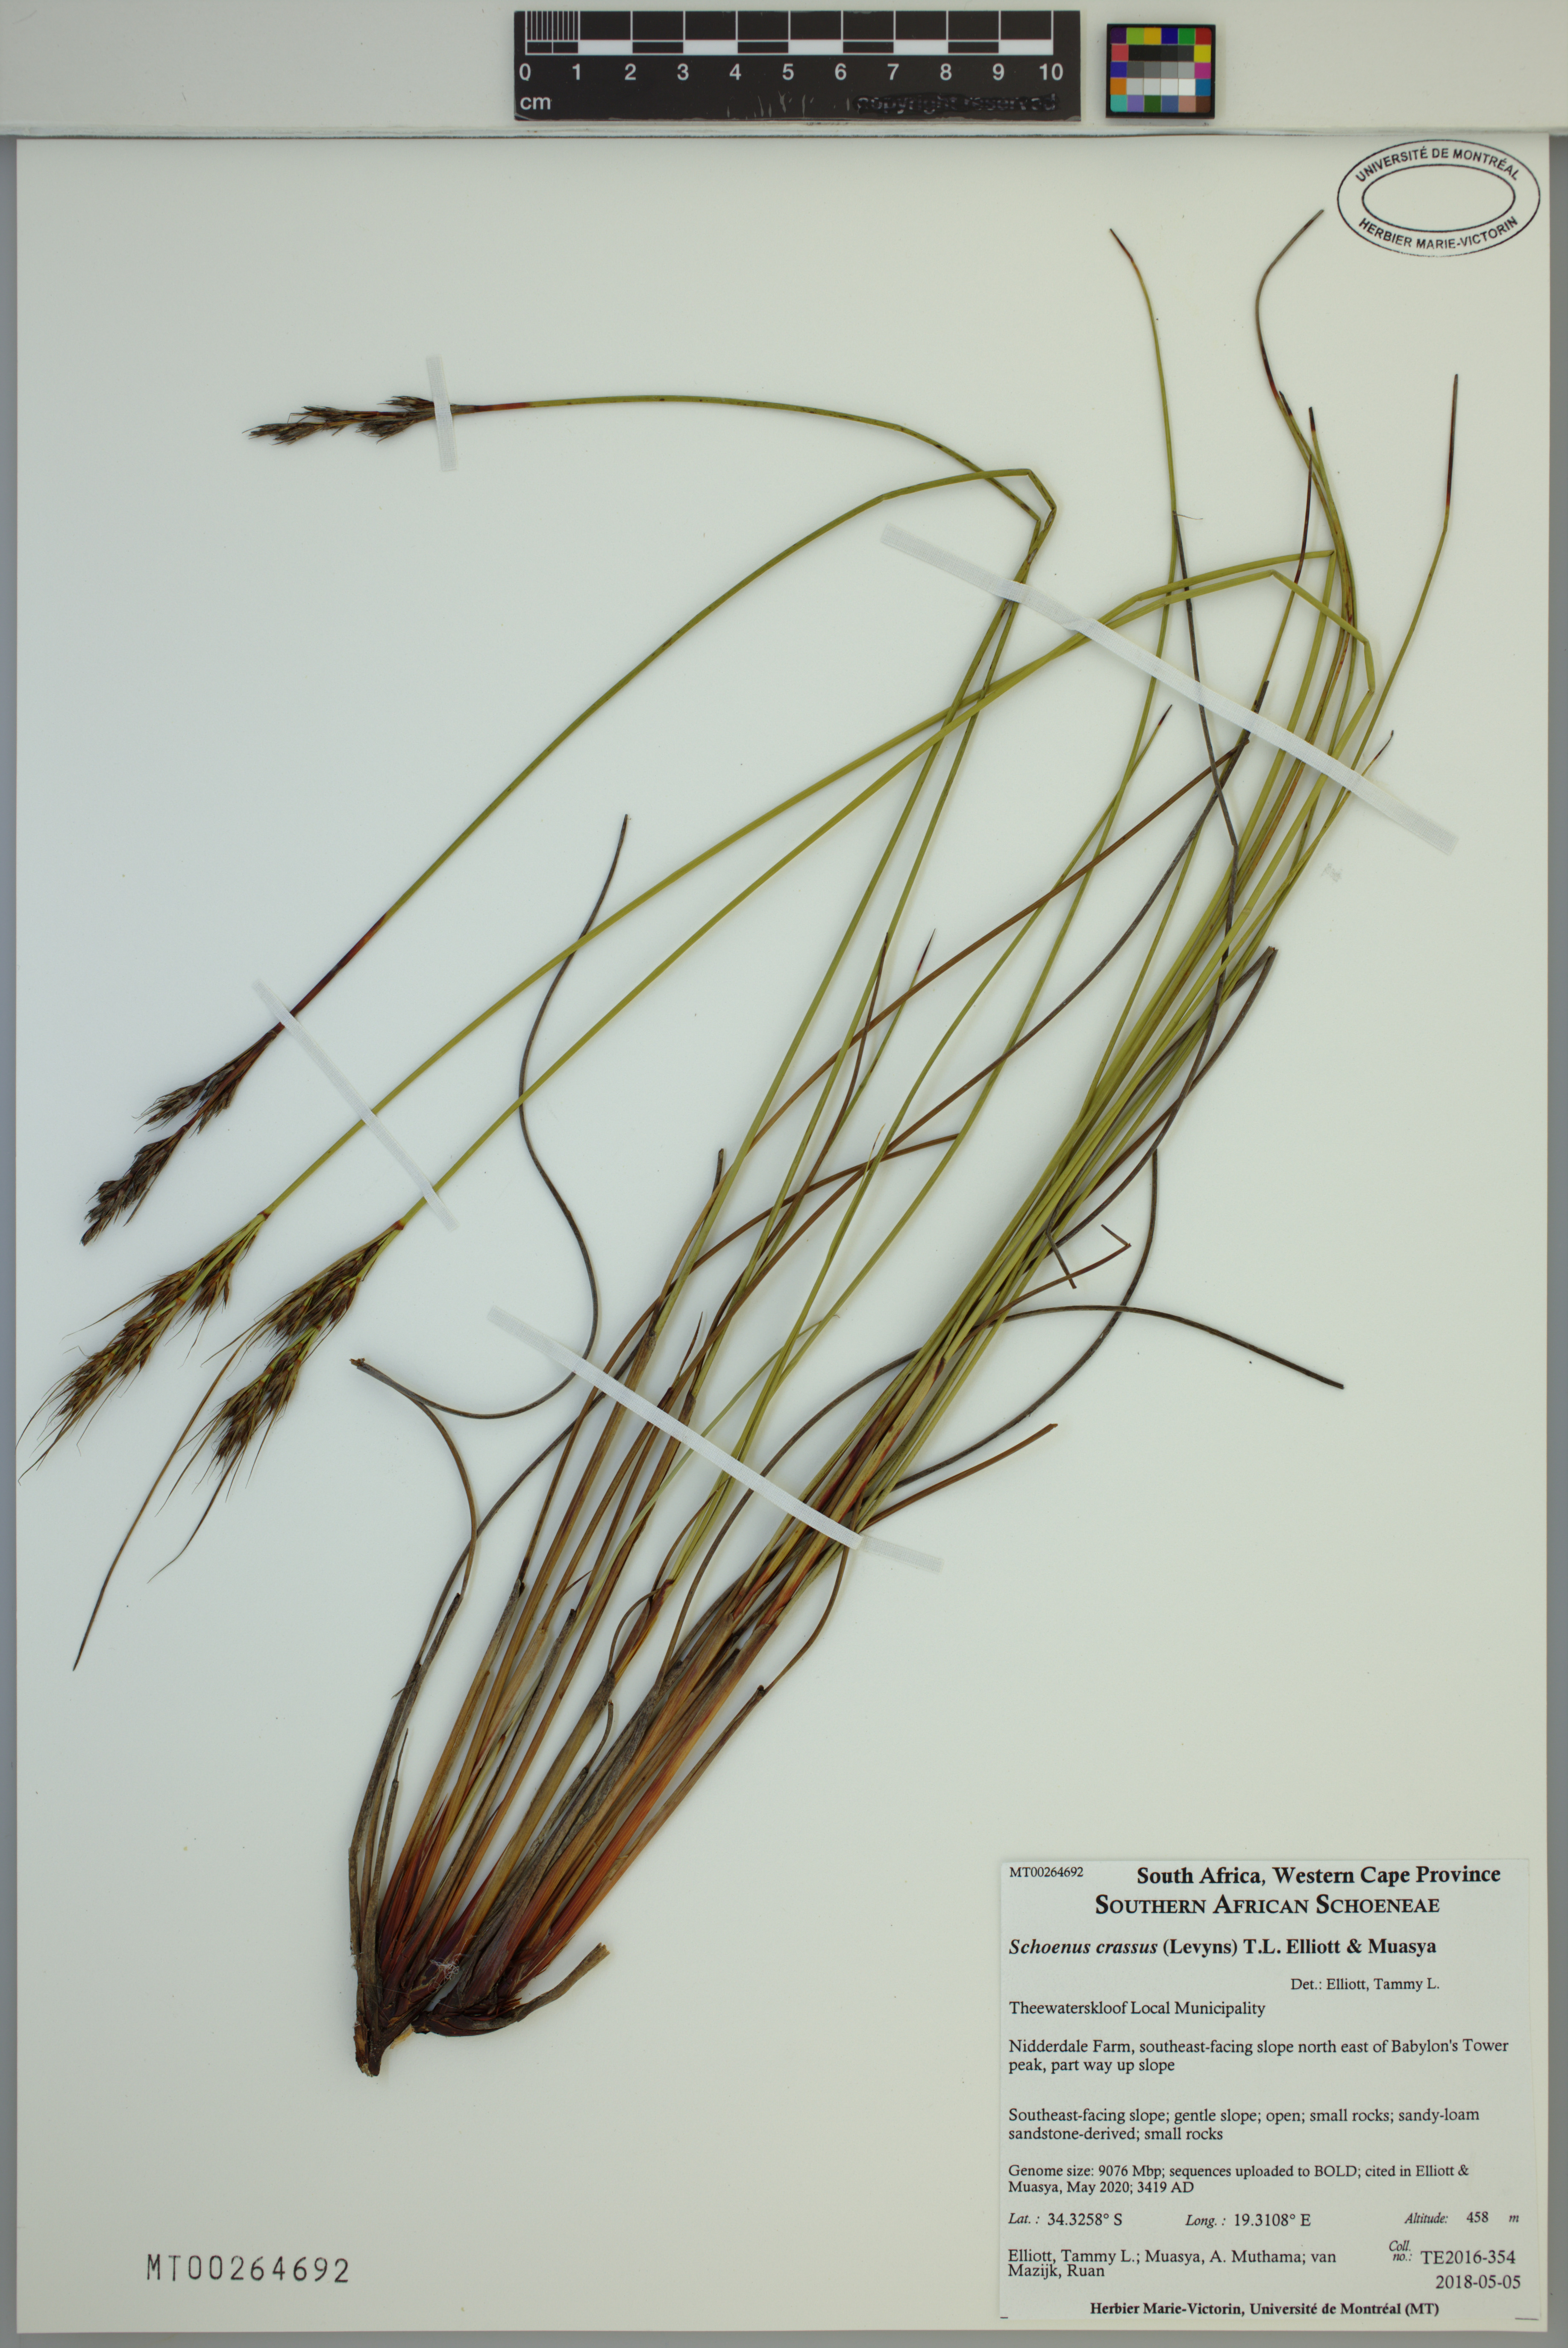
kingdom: Plantae
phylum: Tracheophyta
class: Liliopsida
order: Poales
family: Cyperaceae
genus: Schoenus
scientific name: Schoenus crassus
